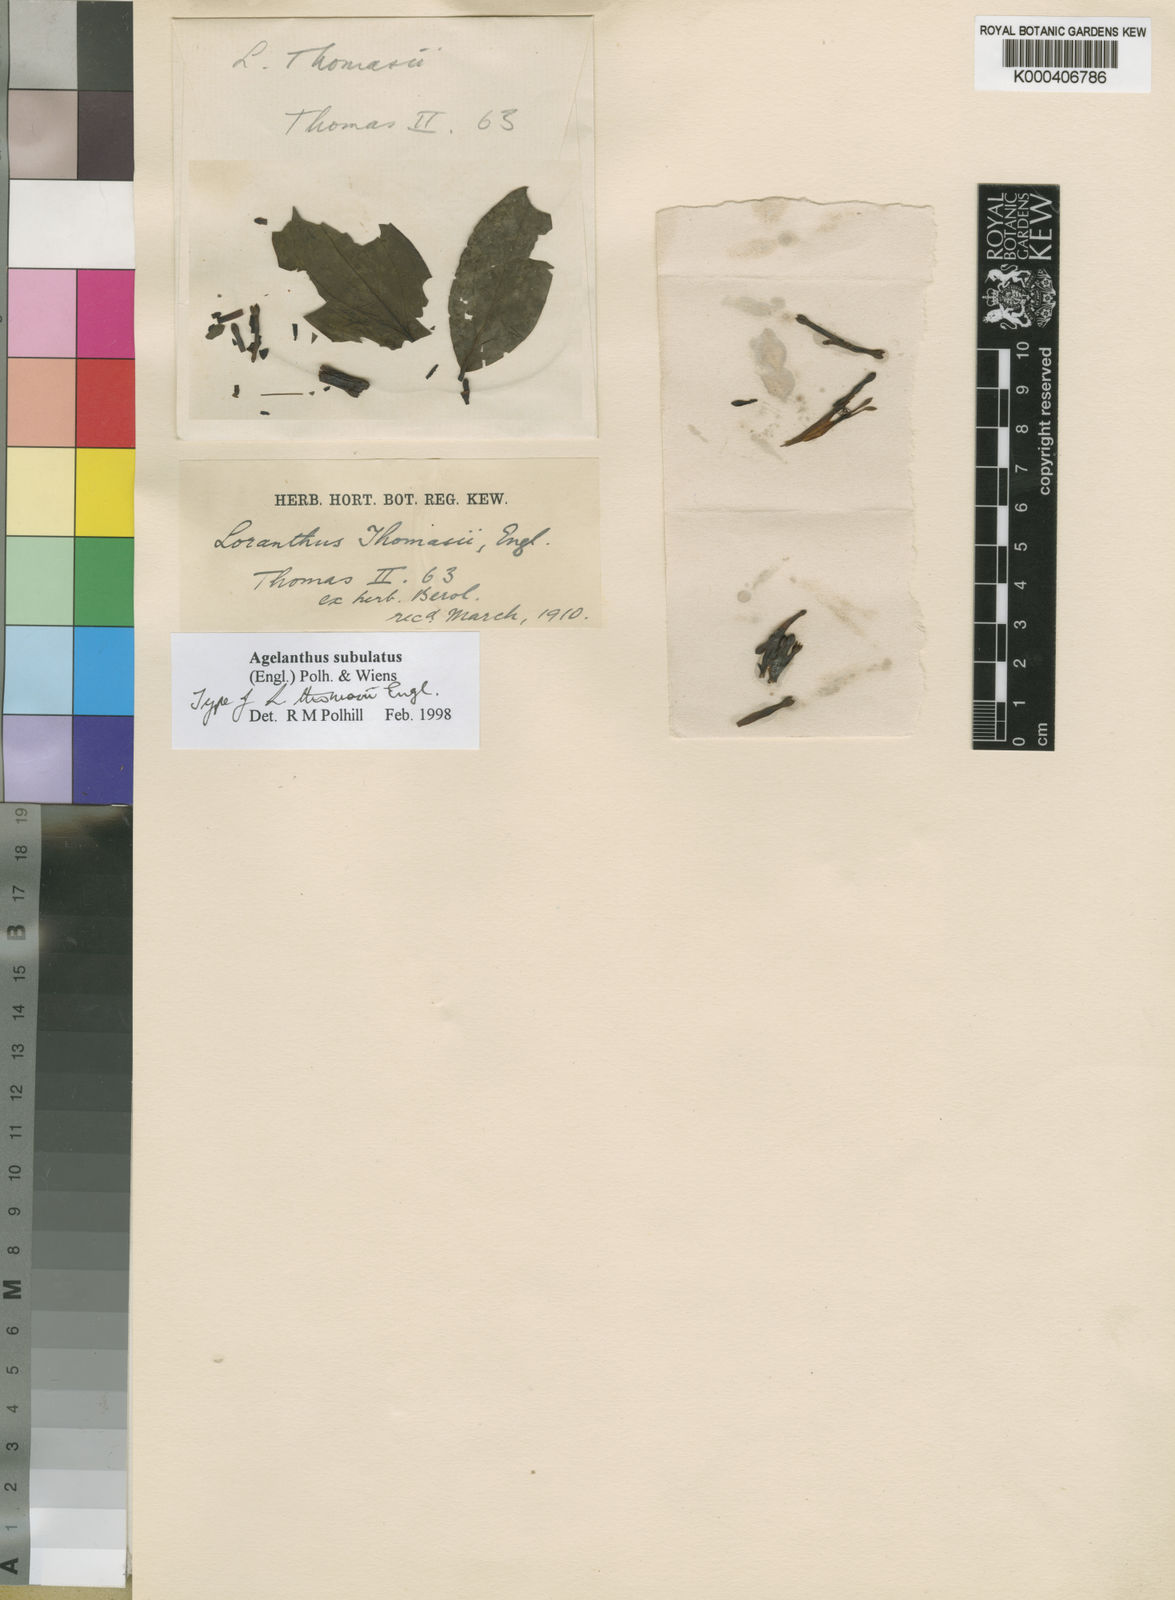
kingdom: Plantae
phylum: Tracheophyta
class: Magnoliopsida
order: Santalales
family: Loranthaceae
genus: Agelanthus
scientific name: Agelanthus subulatus
